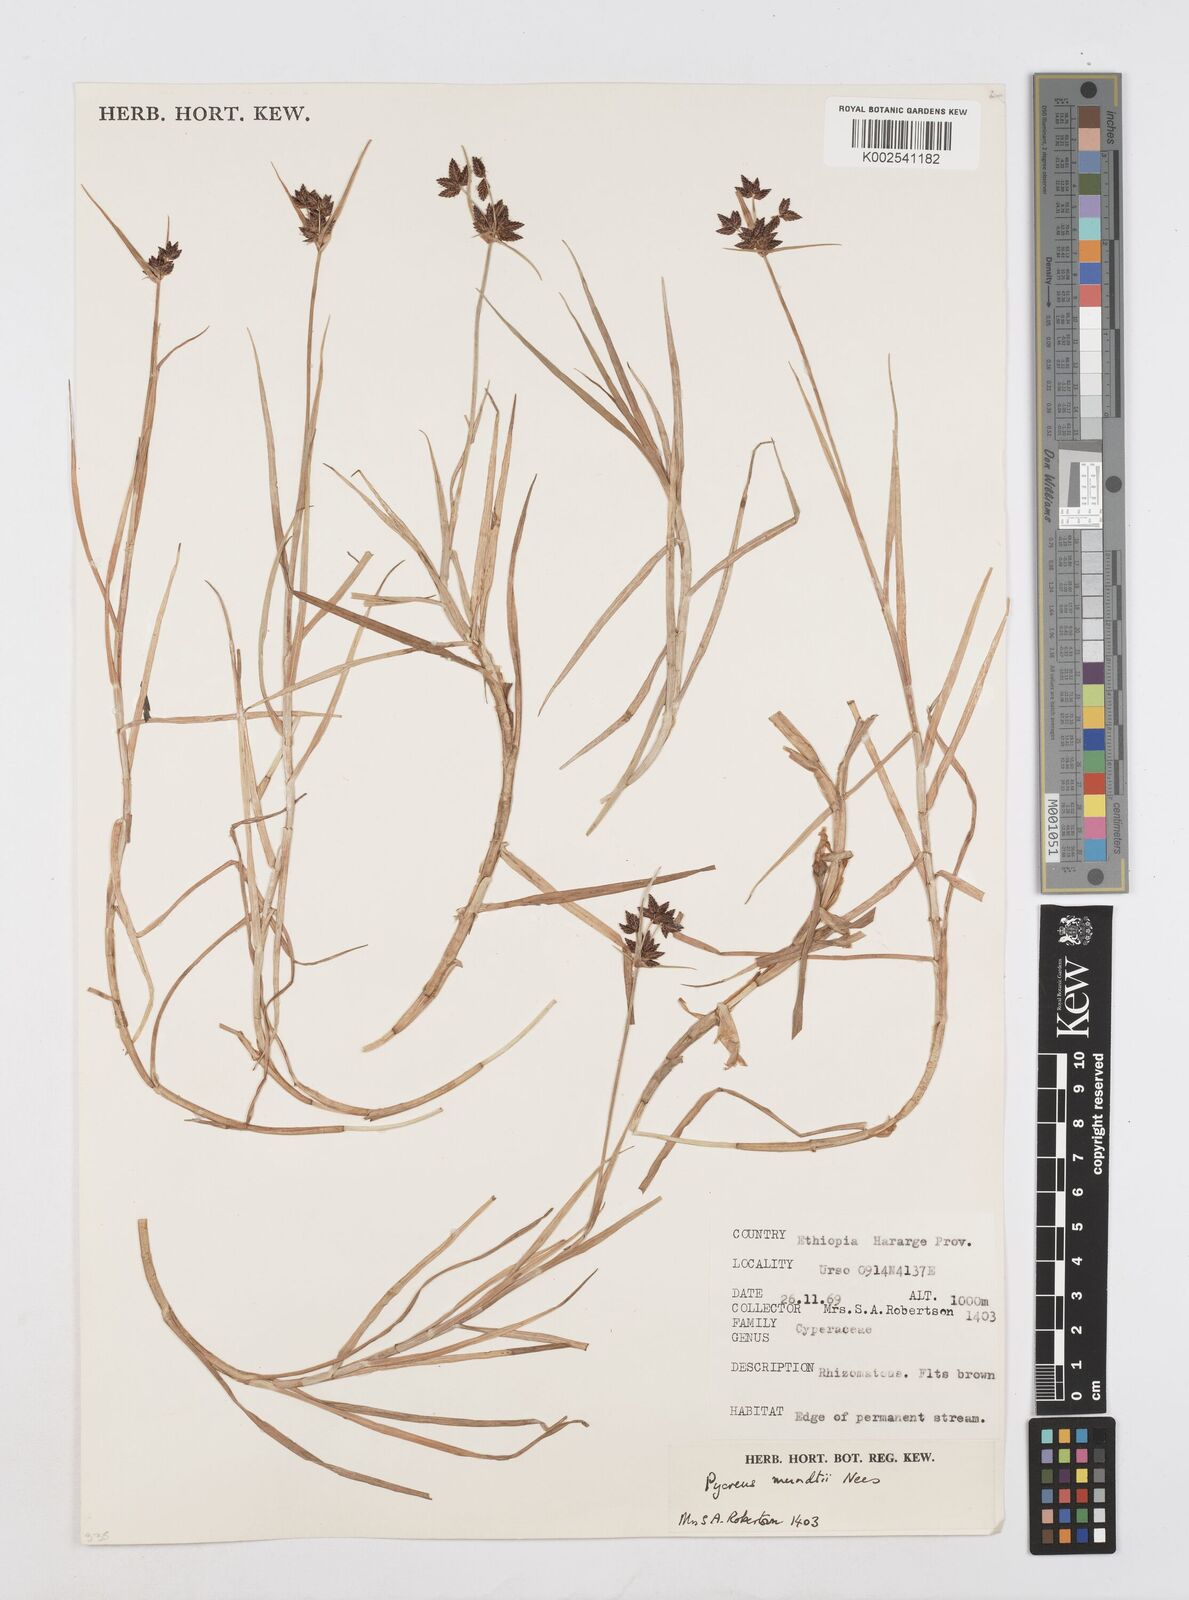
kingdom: Plantae
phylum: Tracheophyta
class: Liliopsida
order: Poales
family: Cyperaceae
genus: Cyperus
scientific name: Cyperus mundii
